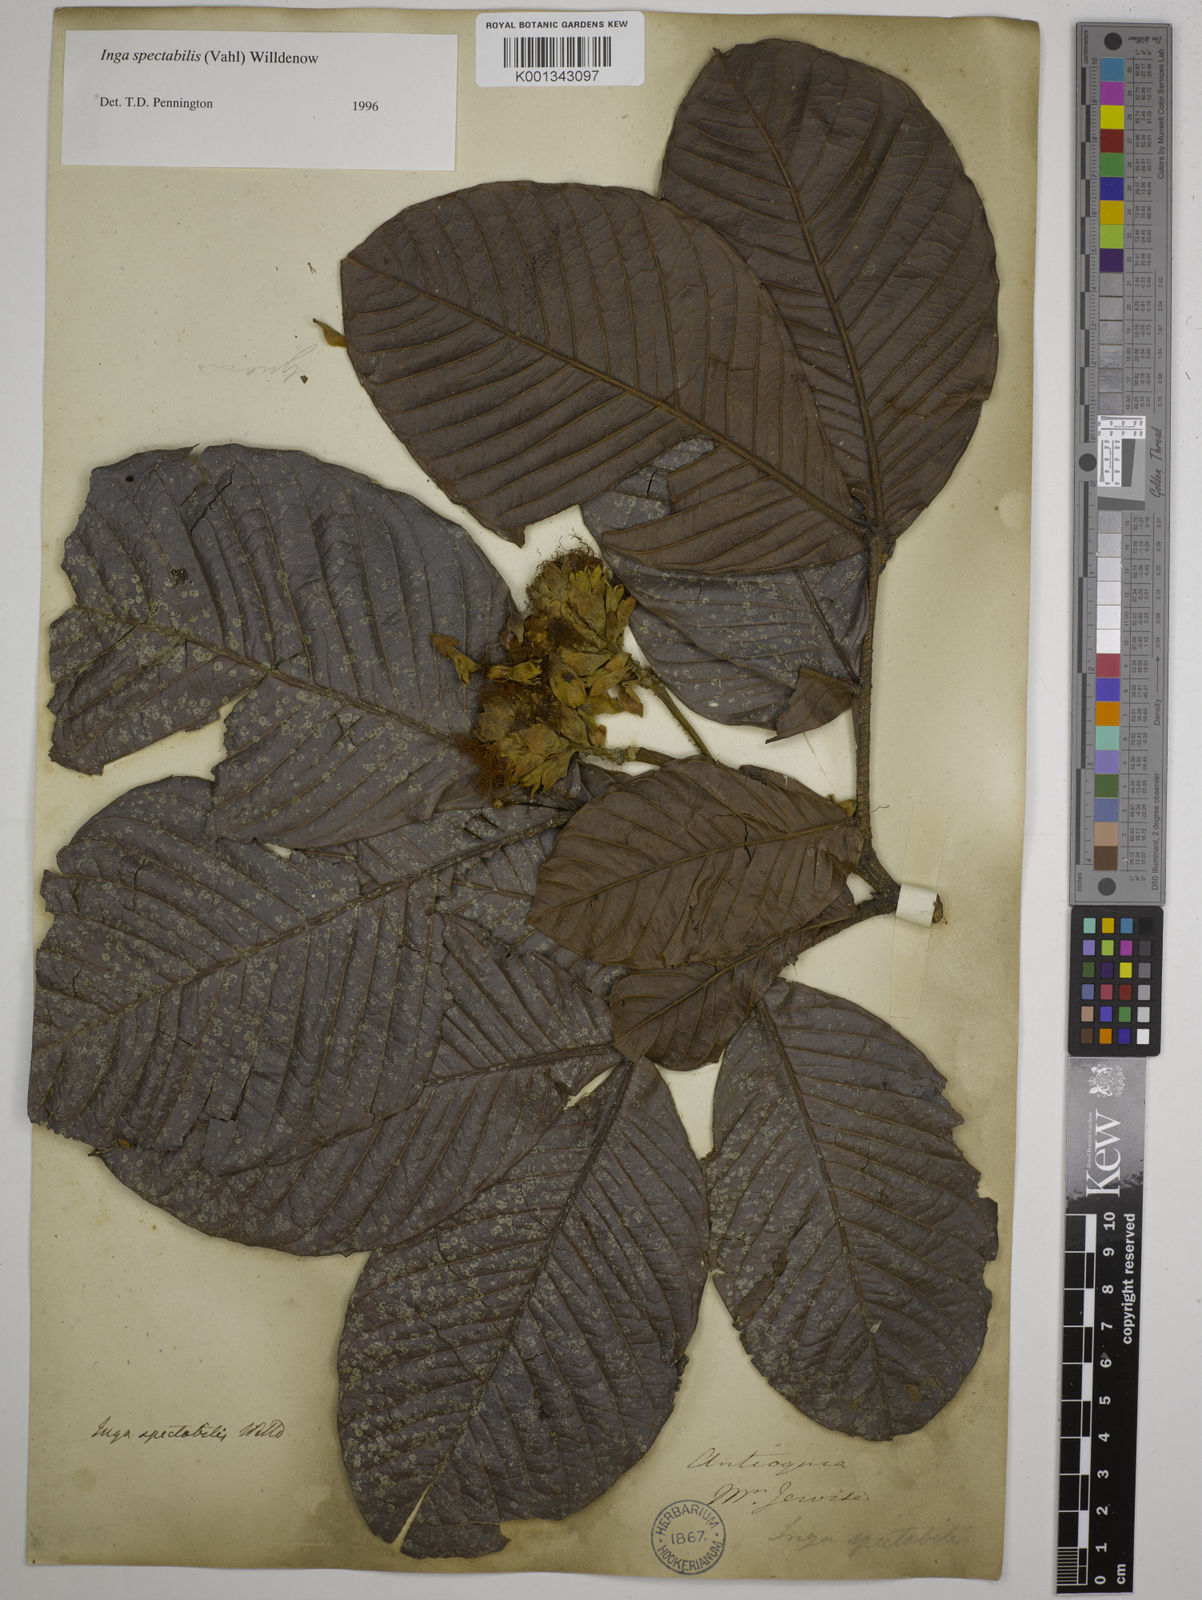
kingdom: Plantae
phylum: Tracheophyta
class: Magnoliopsida
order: Fabales
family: Fabaceae
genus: Inga
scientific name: Inga spectabilis
